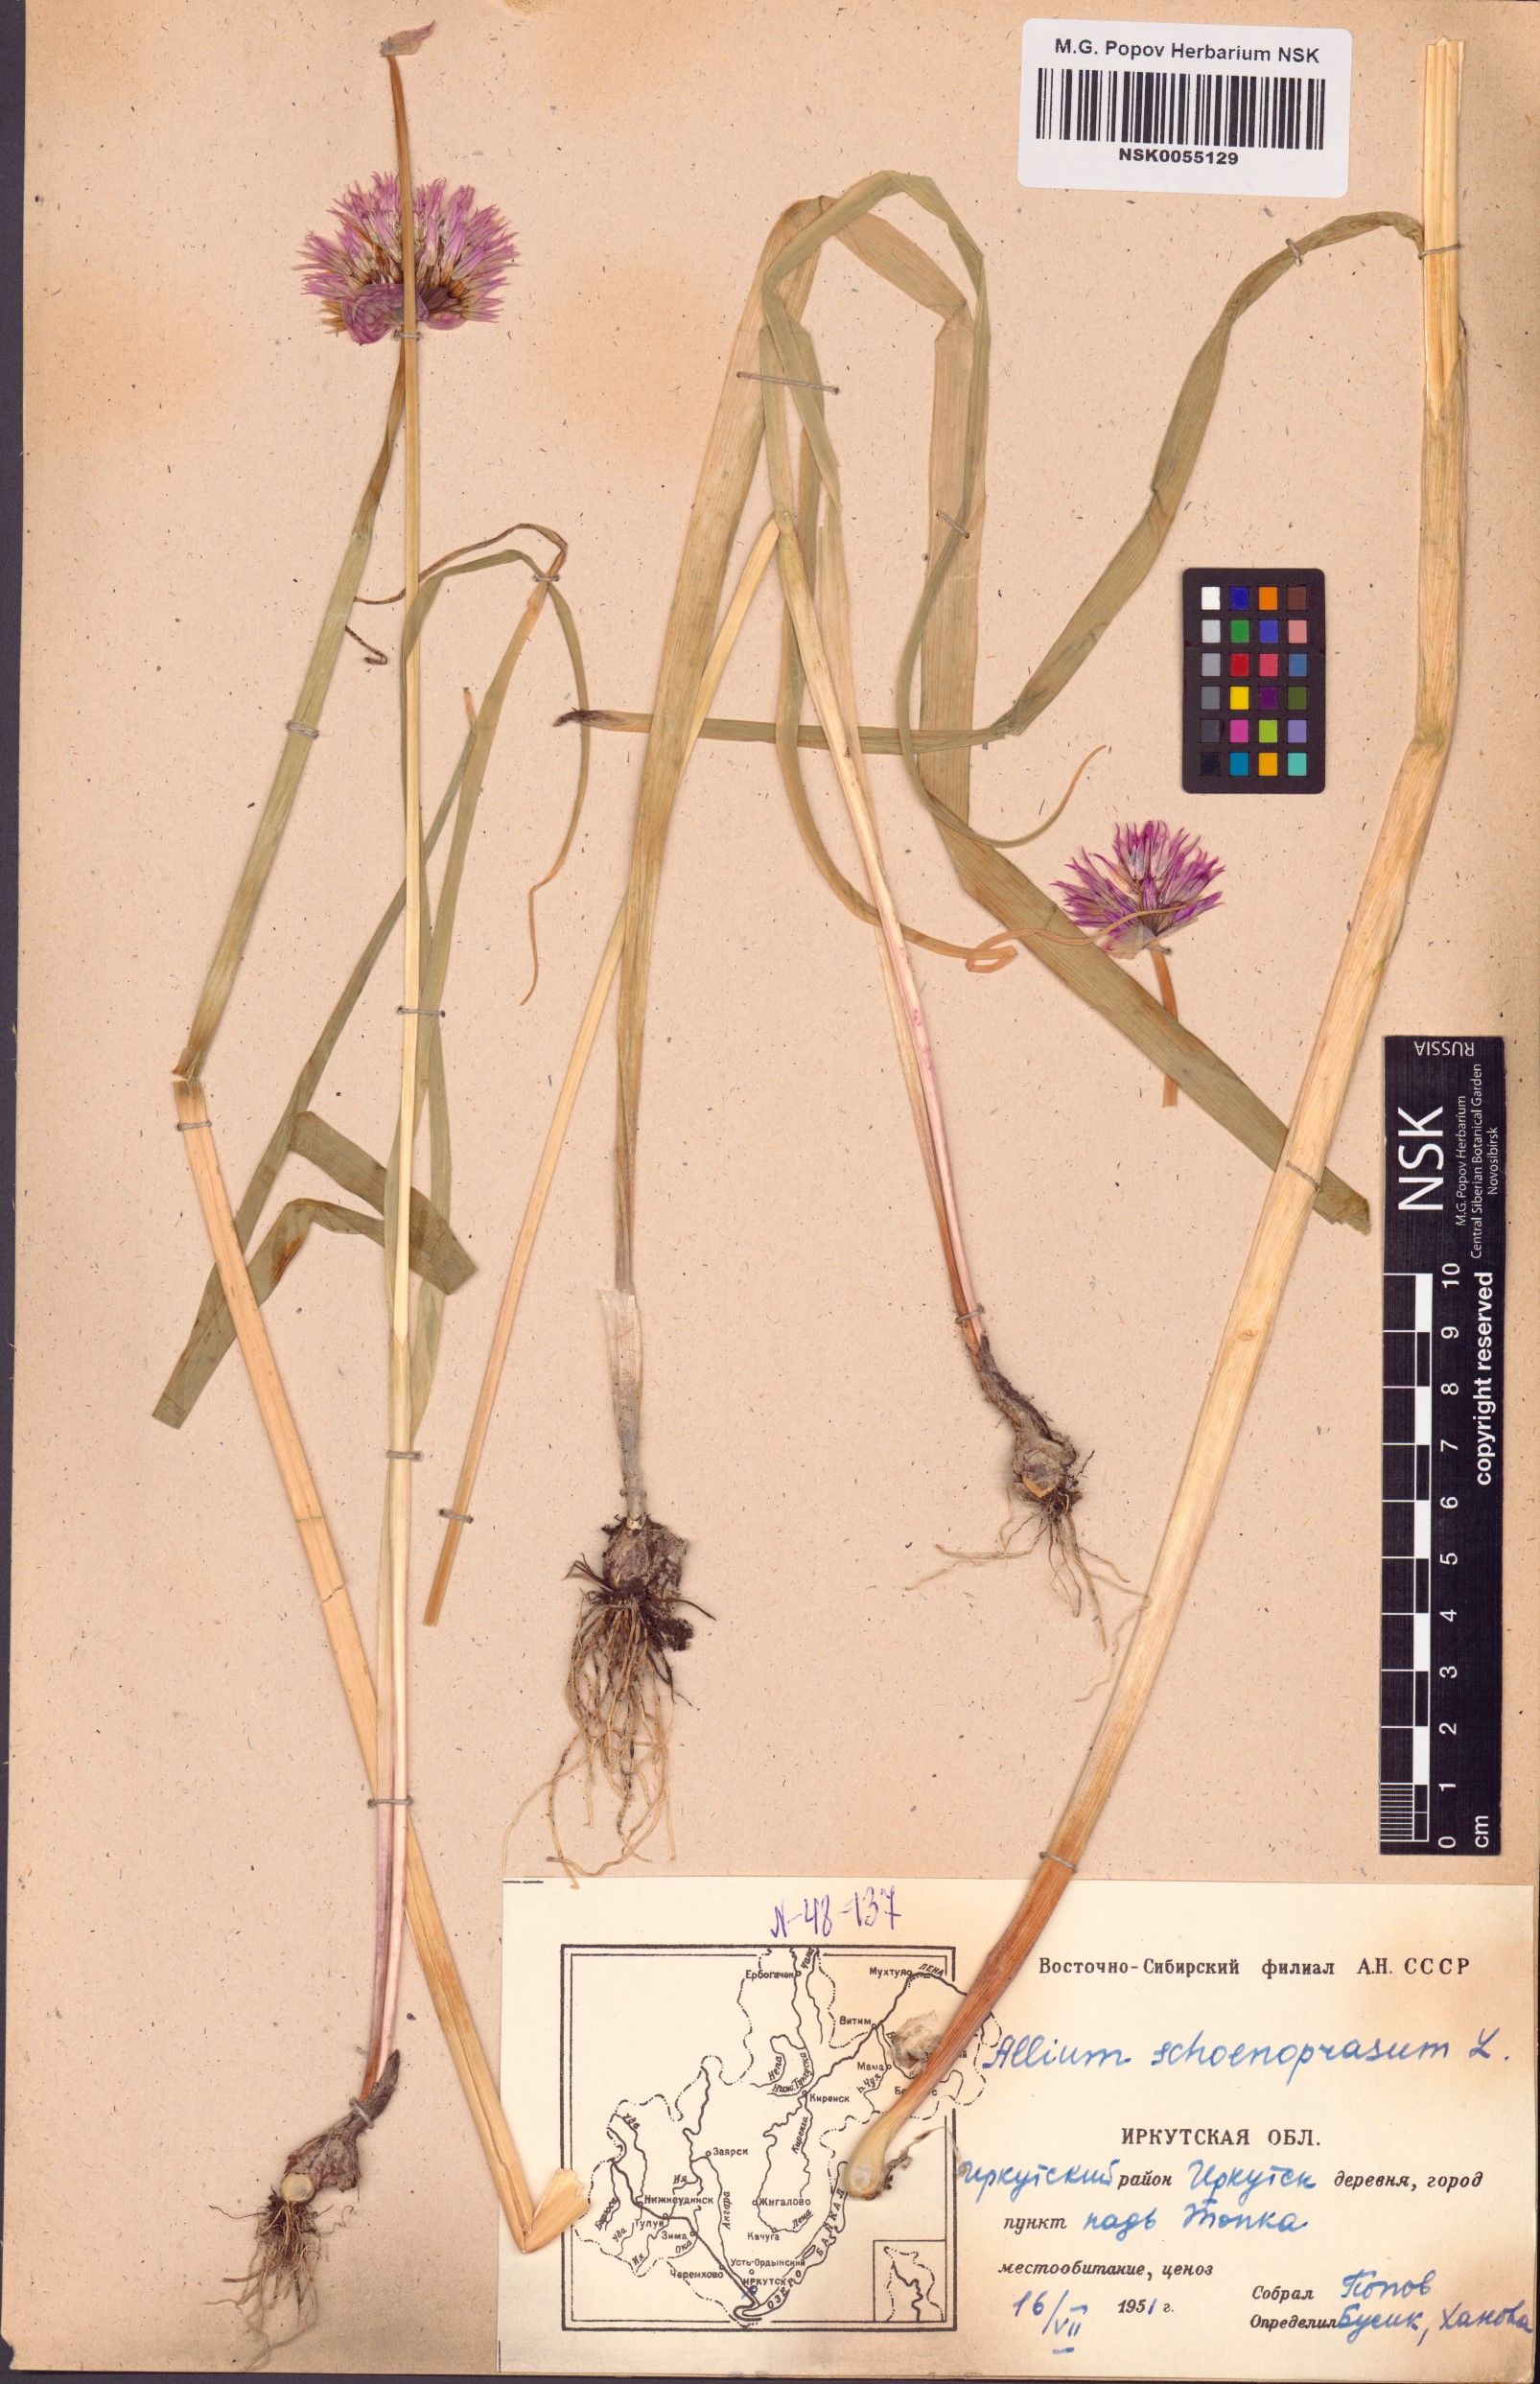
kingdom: Plantae
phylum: Tracheophyta
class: Liliopsida
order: Asparagales
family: Amaryllidaceae
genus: Allium
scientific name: Allium schoenoprasum
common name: Chives
